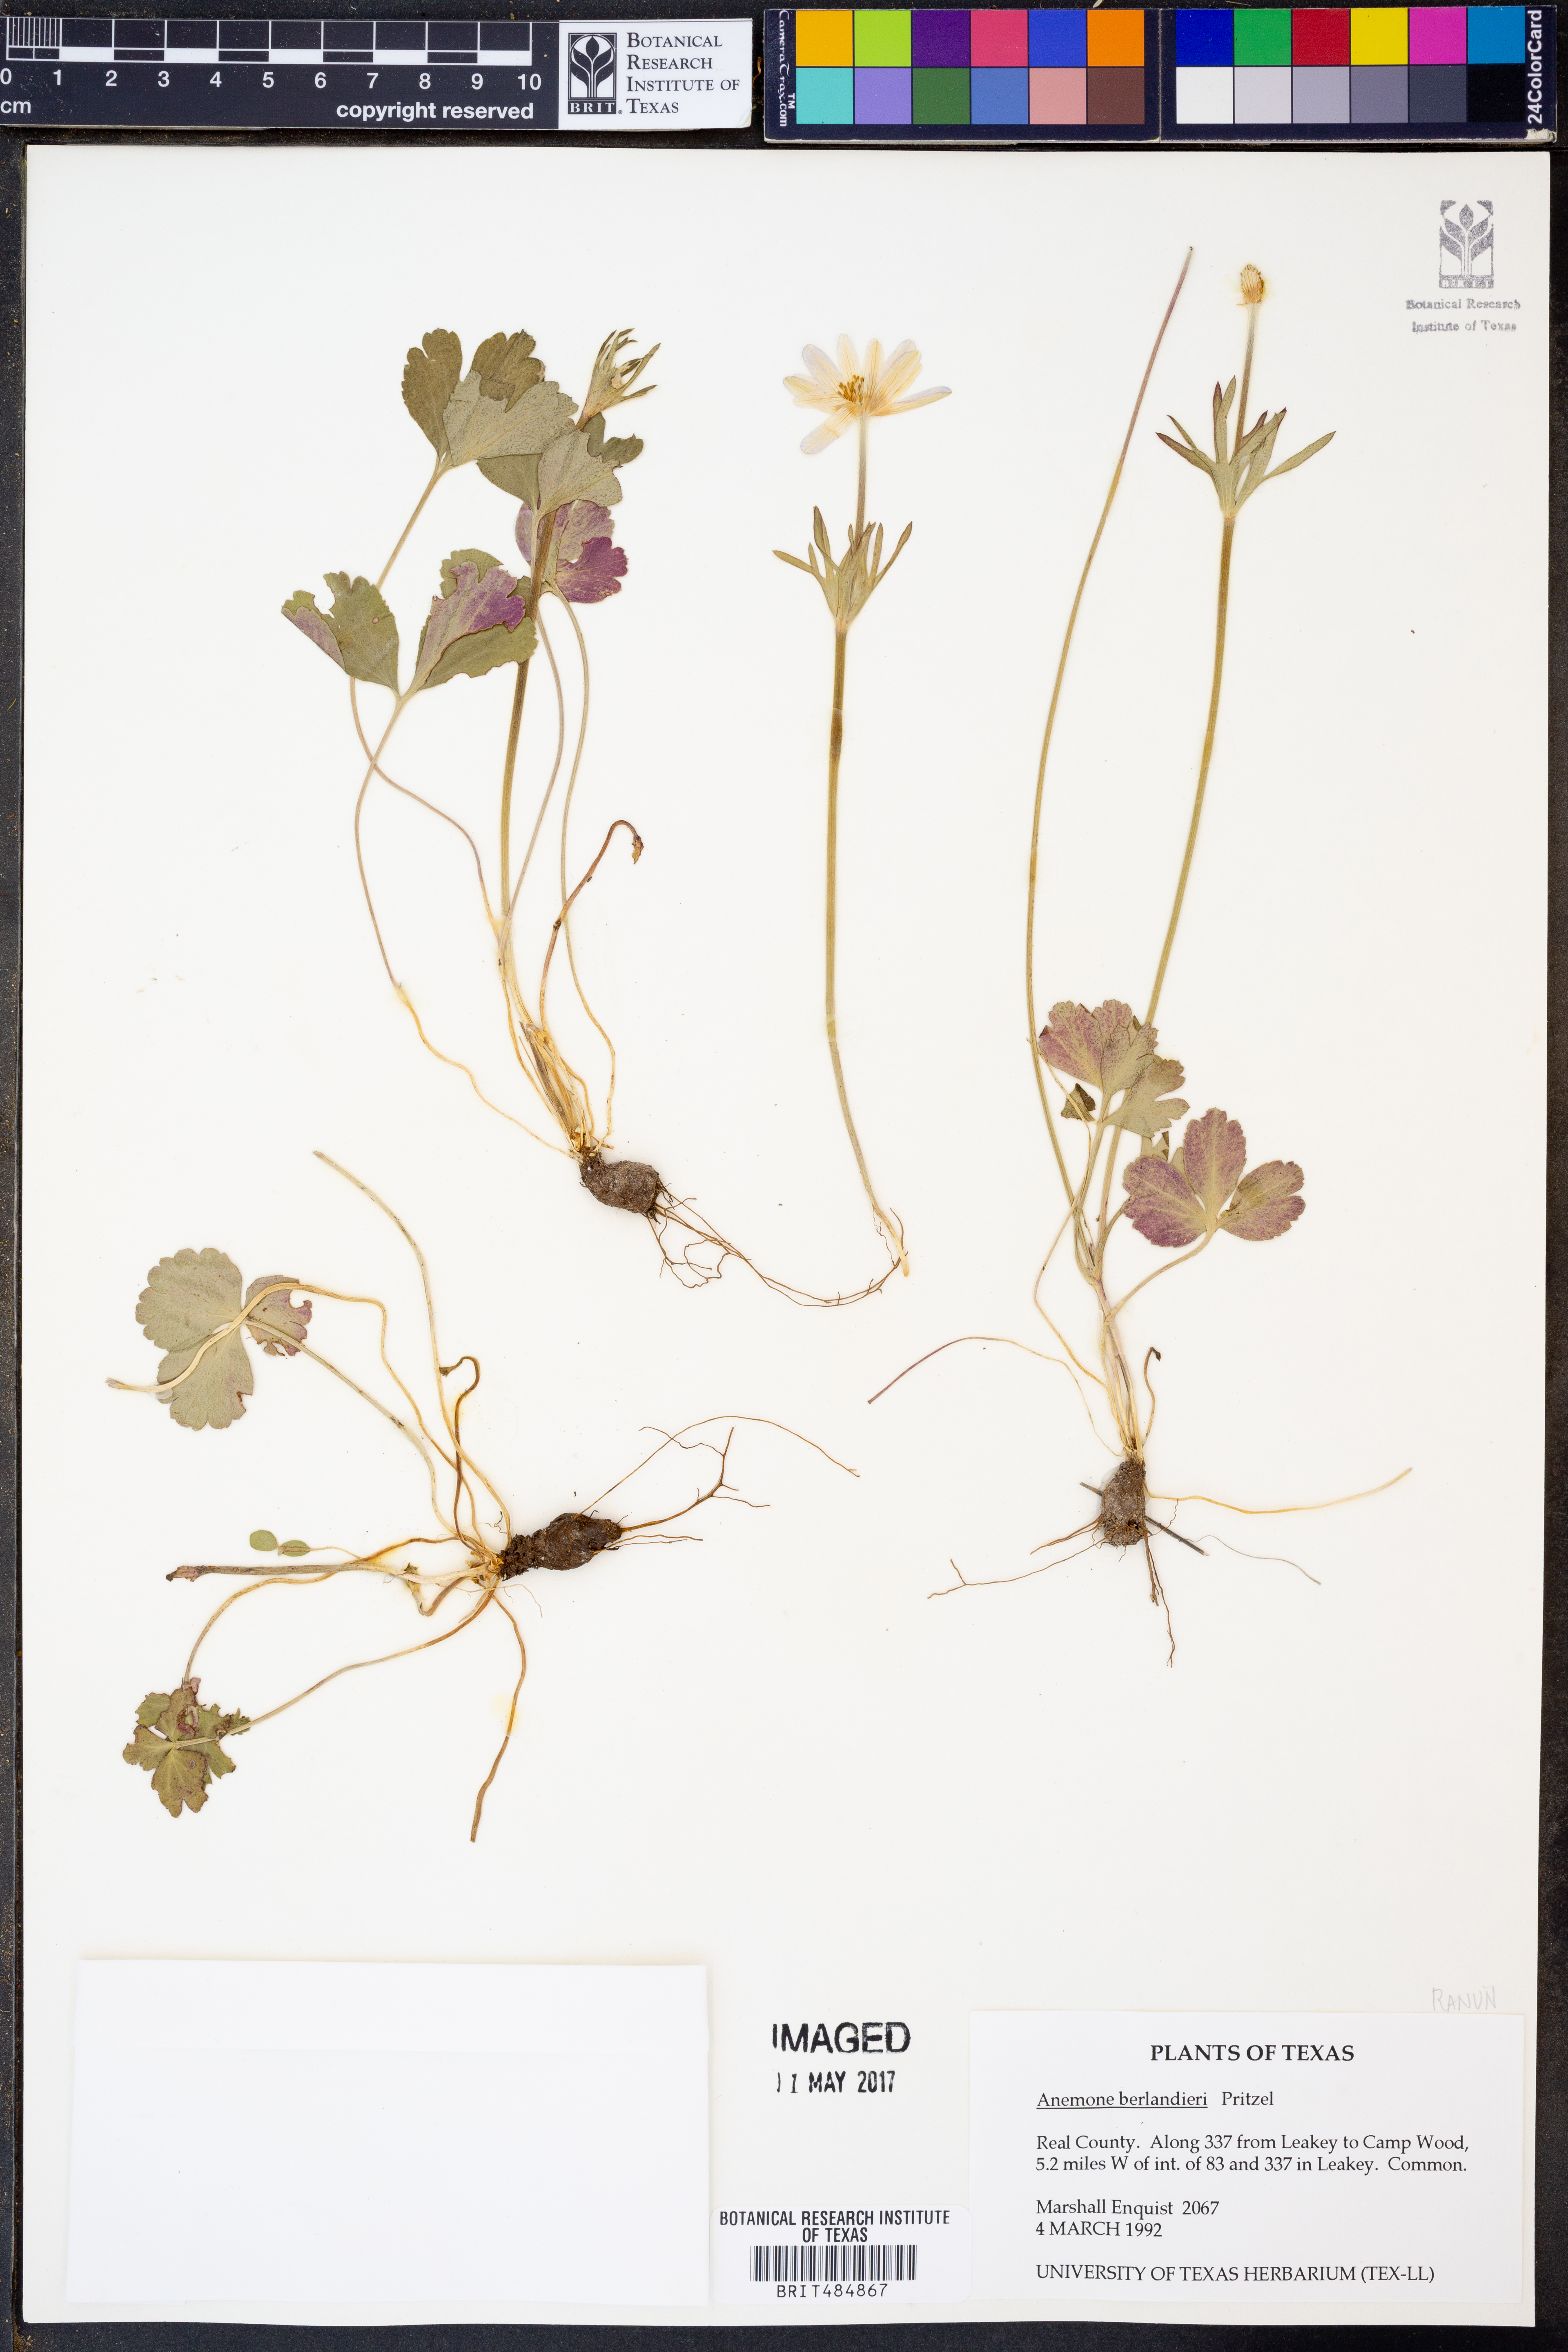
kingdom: Plantae
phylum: Tracheophyta
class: Magnoliopsida
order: Ranunculales
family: Ranunculaceae
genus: Anemone
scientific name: Anemone berlandieri
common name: Ten-petal anemone
